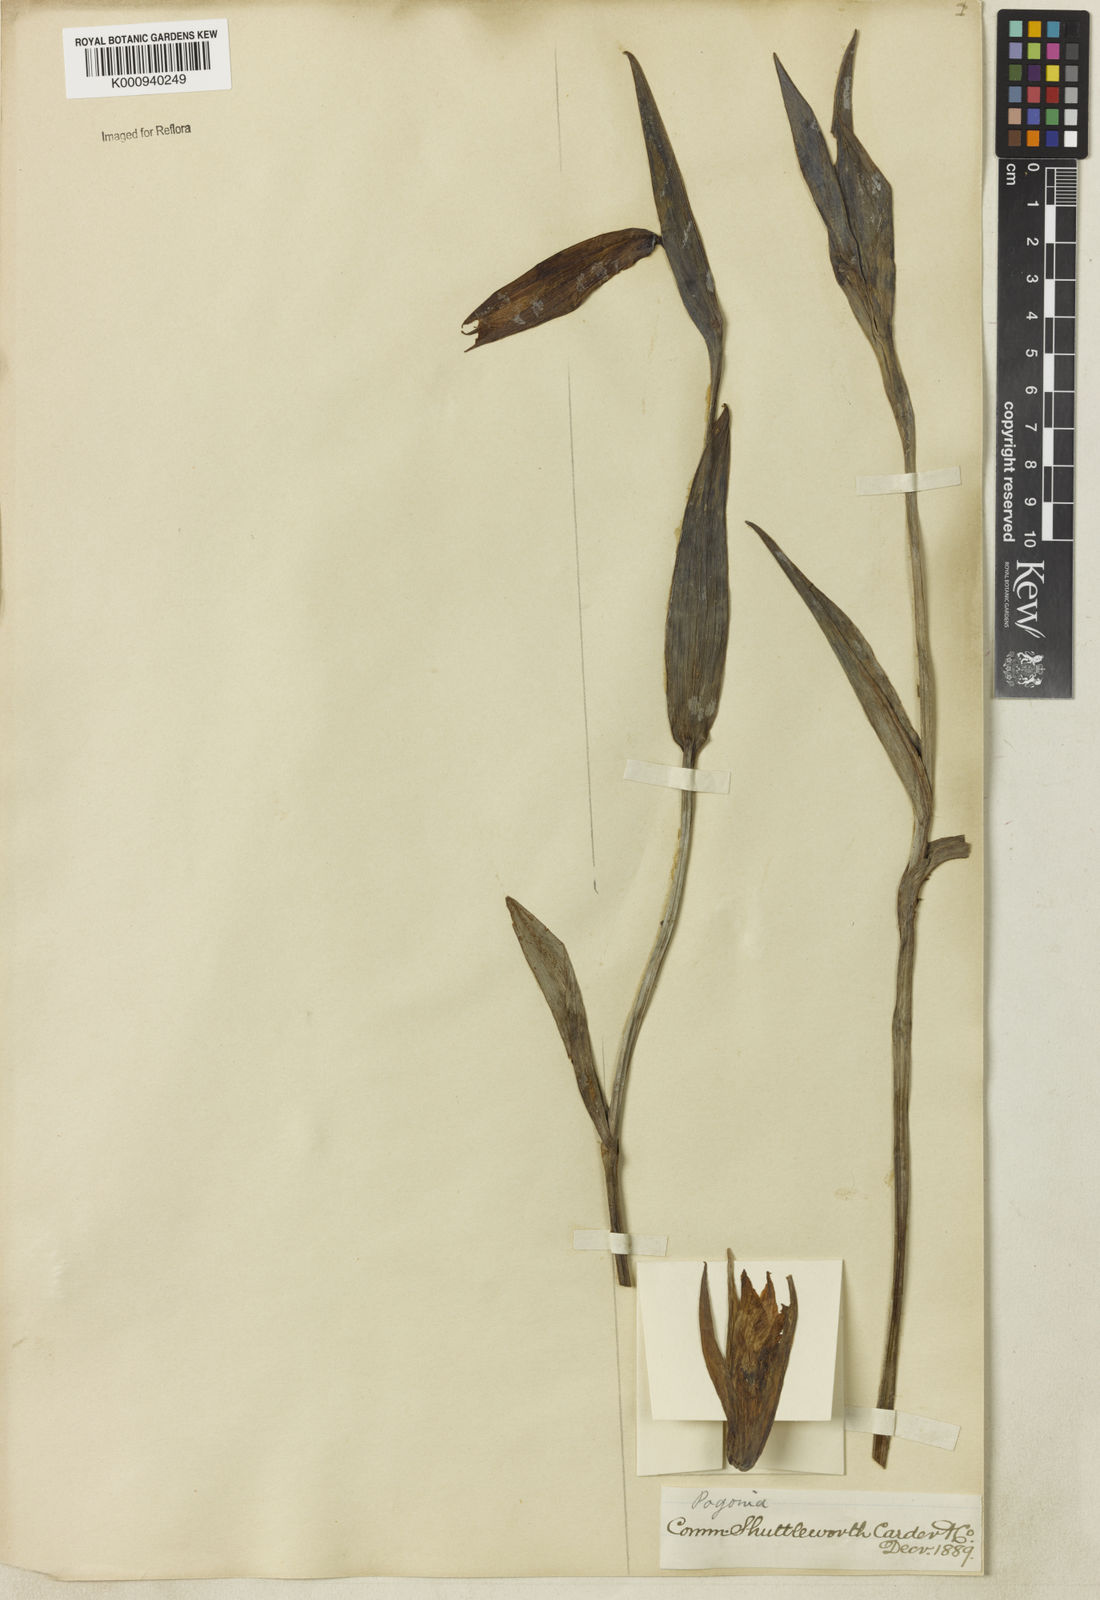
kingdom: Plantae
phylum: Tracheophyta
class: Liliopsida
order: Asparagales
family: Orchidaceae
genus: Cleistes
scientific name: Cleistes
